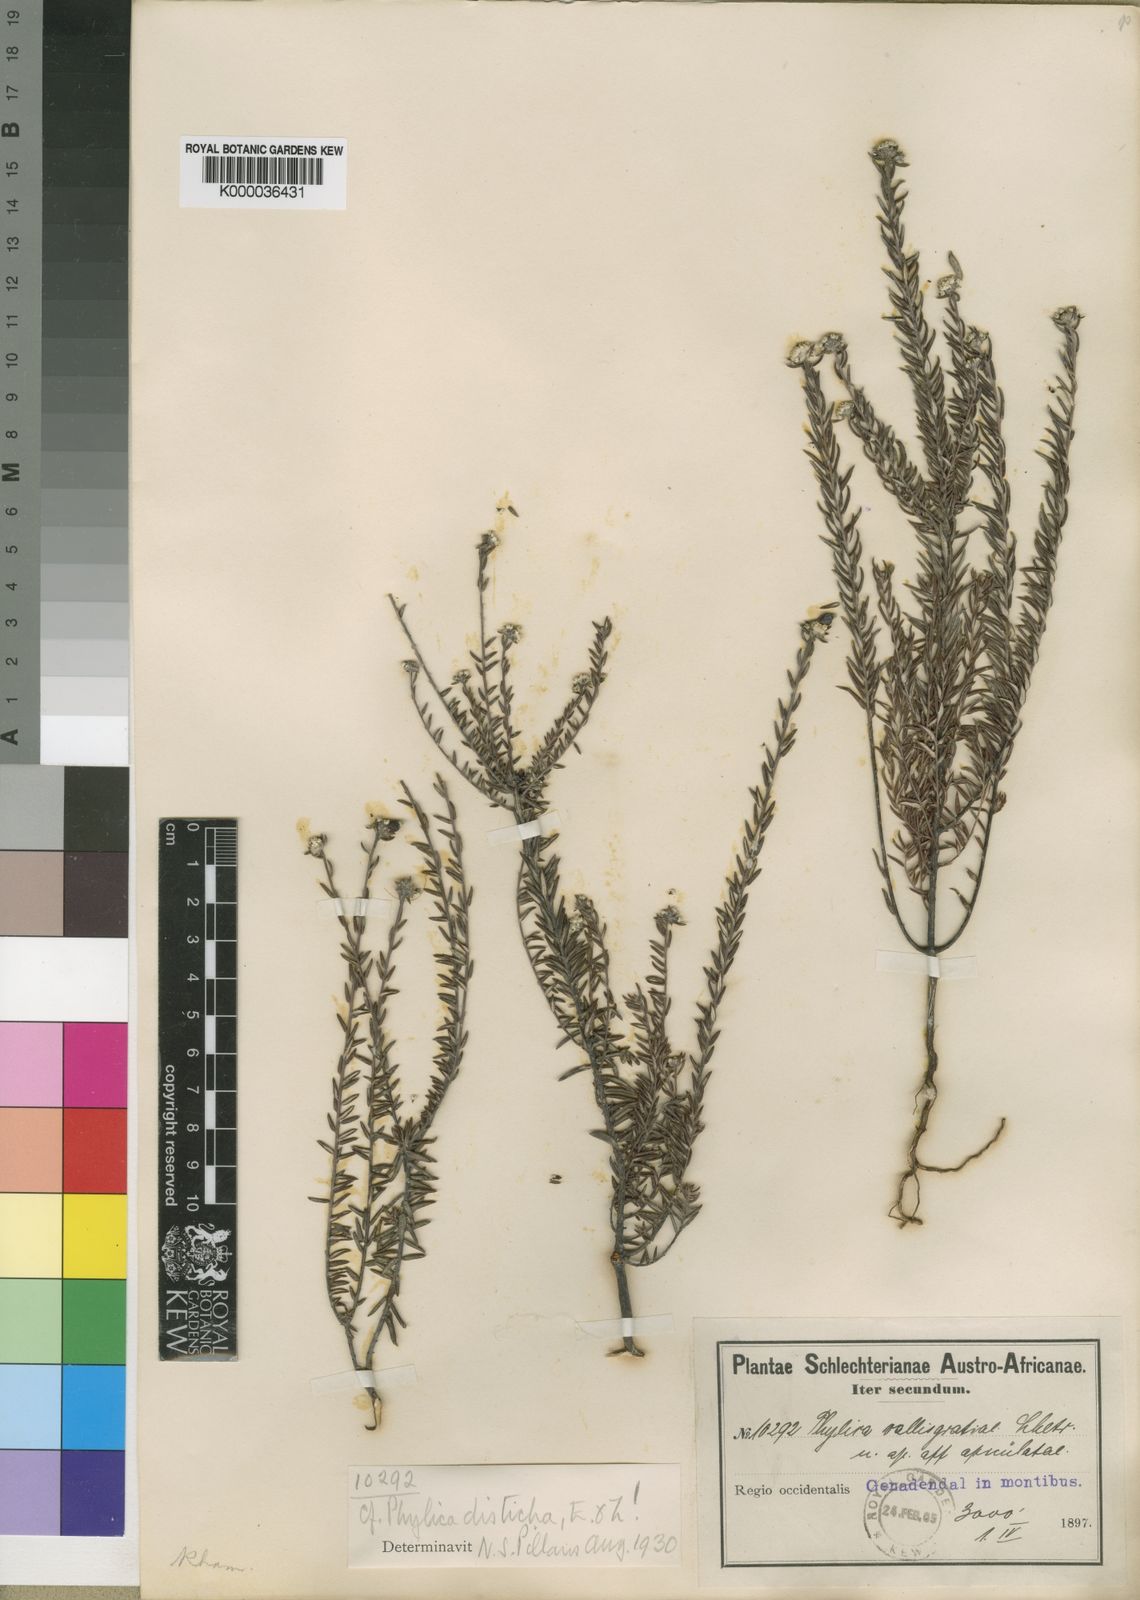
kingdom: Plantae
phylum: Tracheophyta
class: Magnoliopsida
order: Rosales
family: Rhamnaceae
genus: Phylica
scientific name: Phylica diffusa
